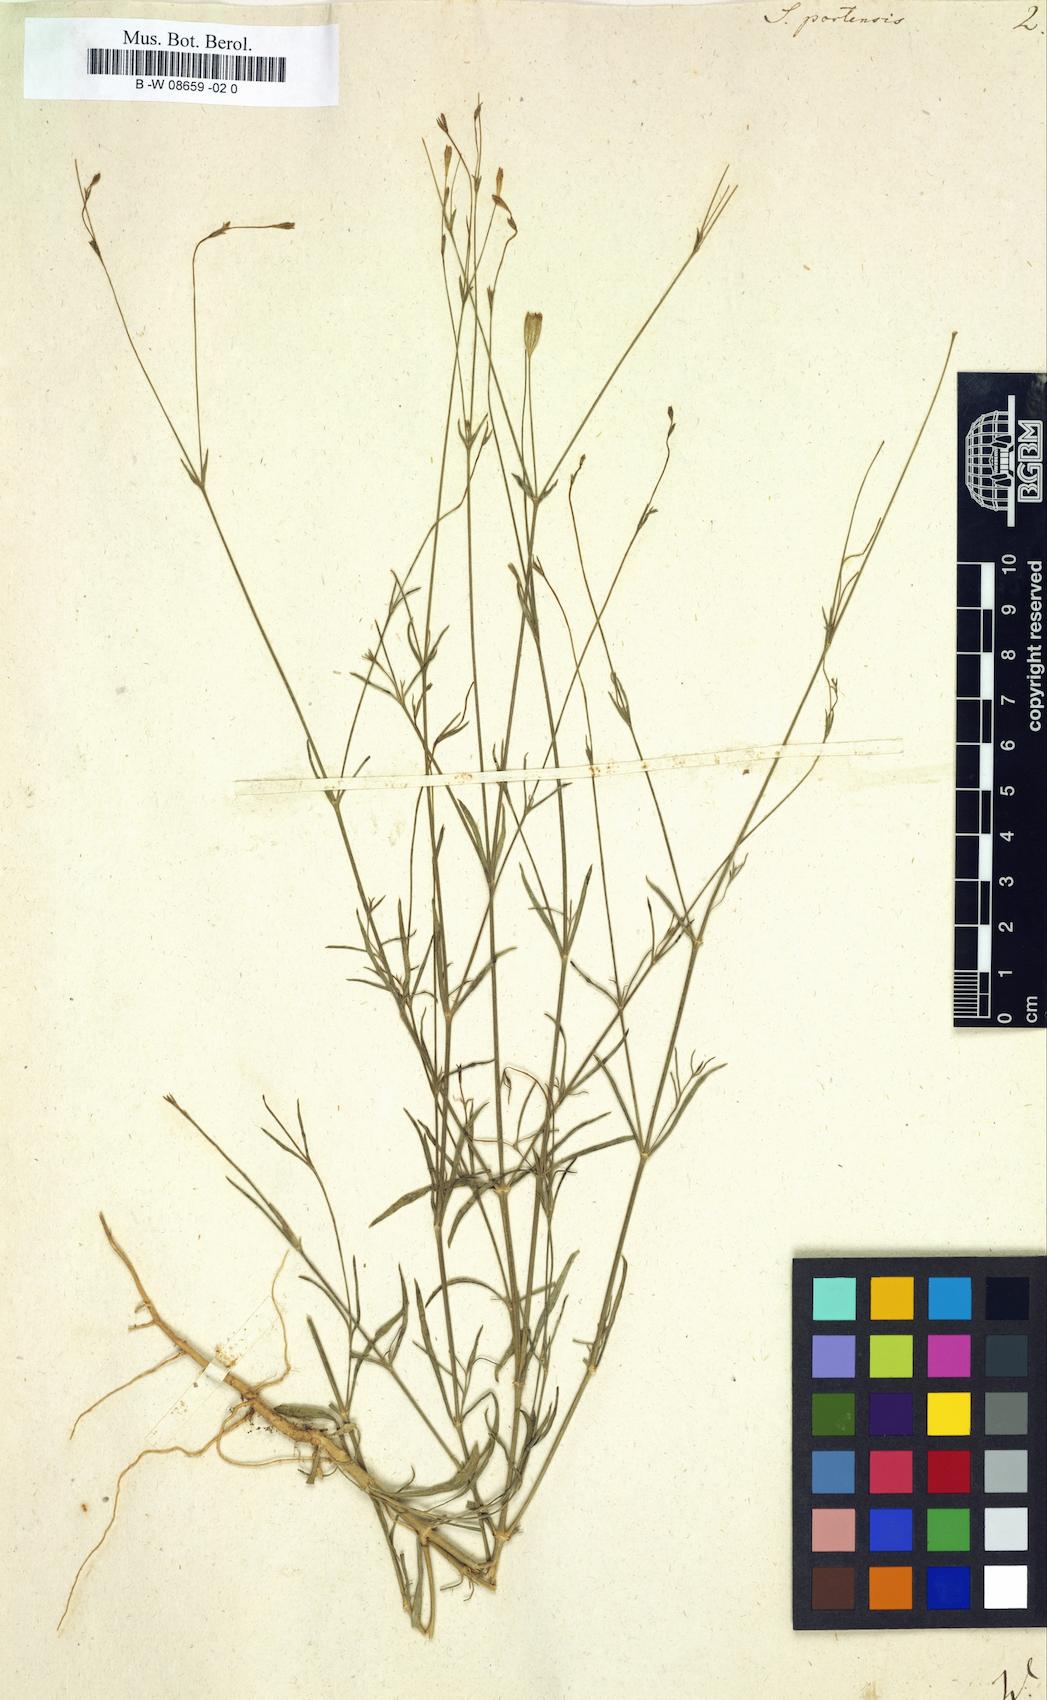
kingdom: Plantae
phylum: Tracheophyta
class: Magnoliopsida
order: Caryophyllales
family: Caryophyllaceae
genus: Silene
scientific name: Silene portensis
